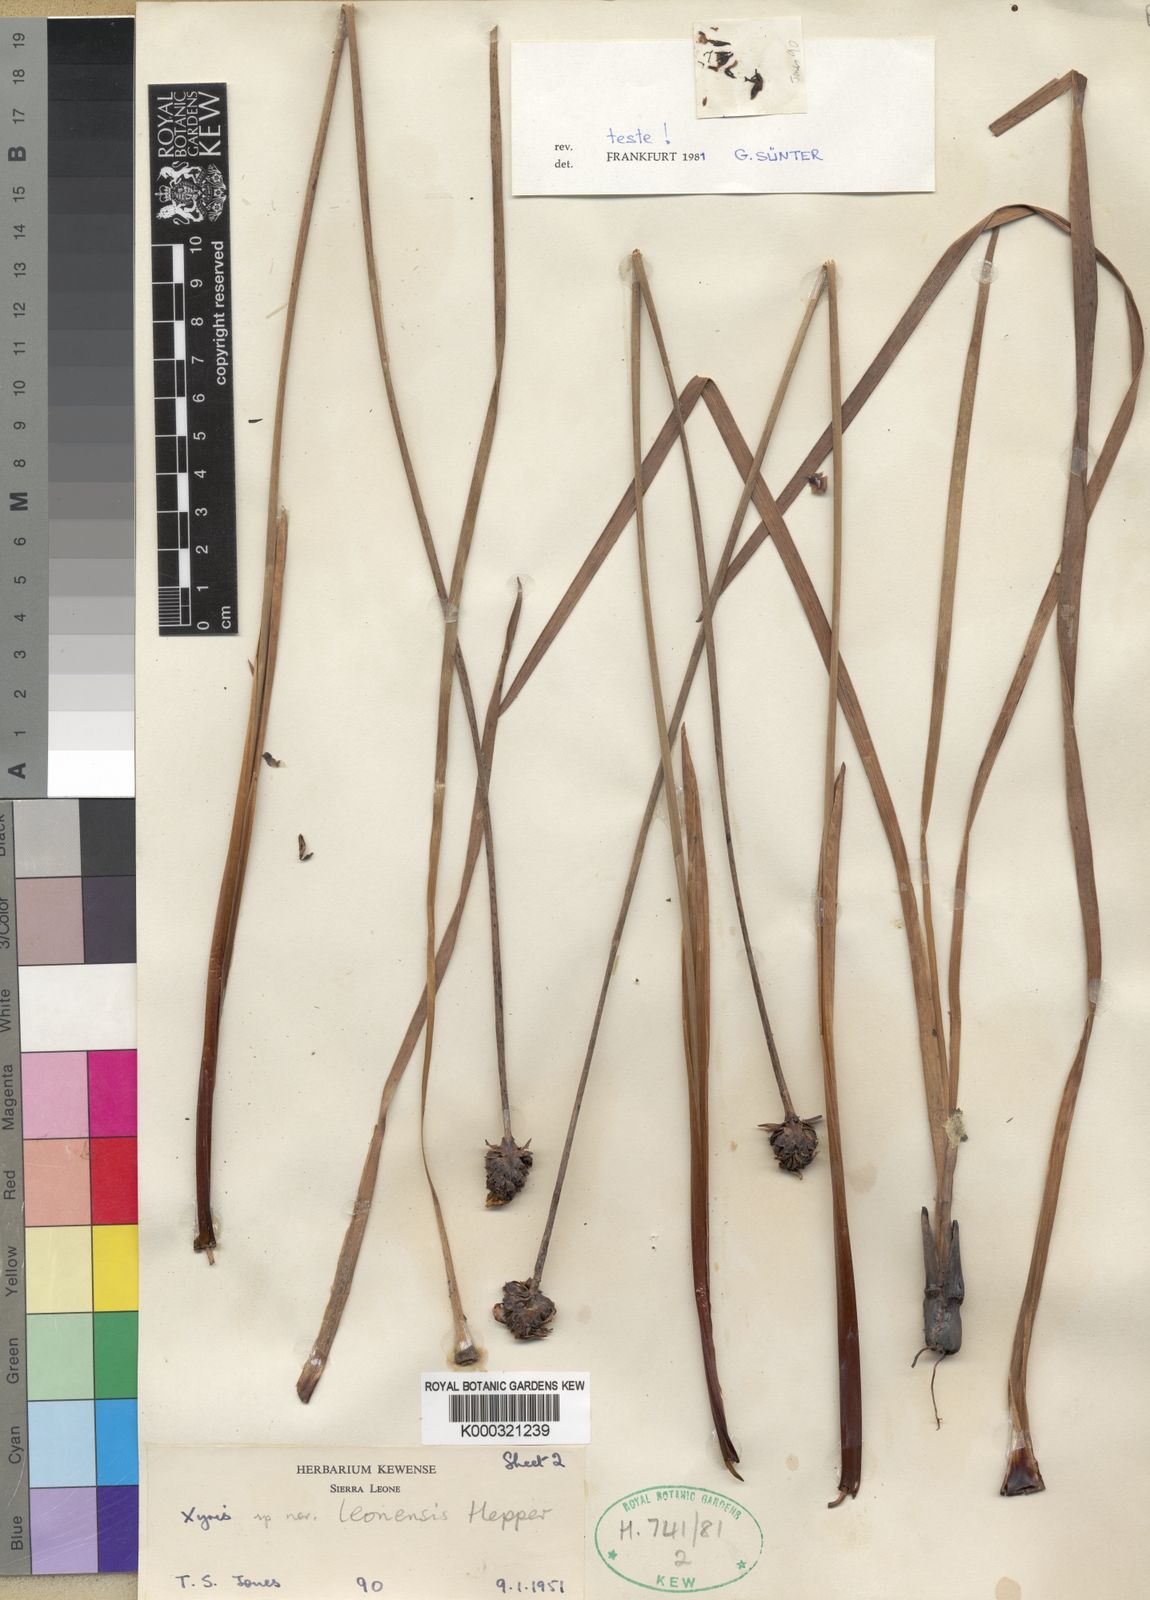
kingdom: Plantae
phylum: Tracheophyta
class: Liliopsida
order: Poales
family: Xyridaceae
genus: Xyris
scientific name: Xyris leonensis
